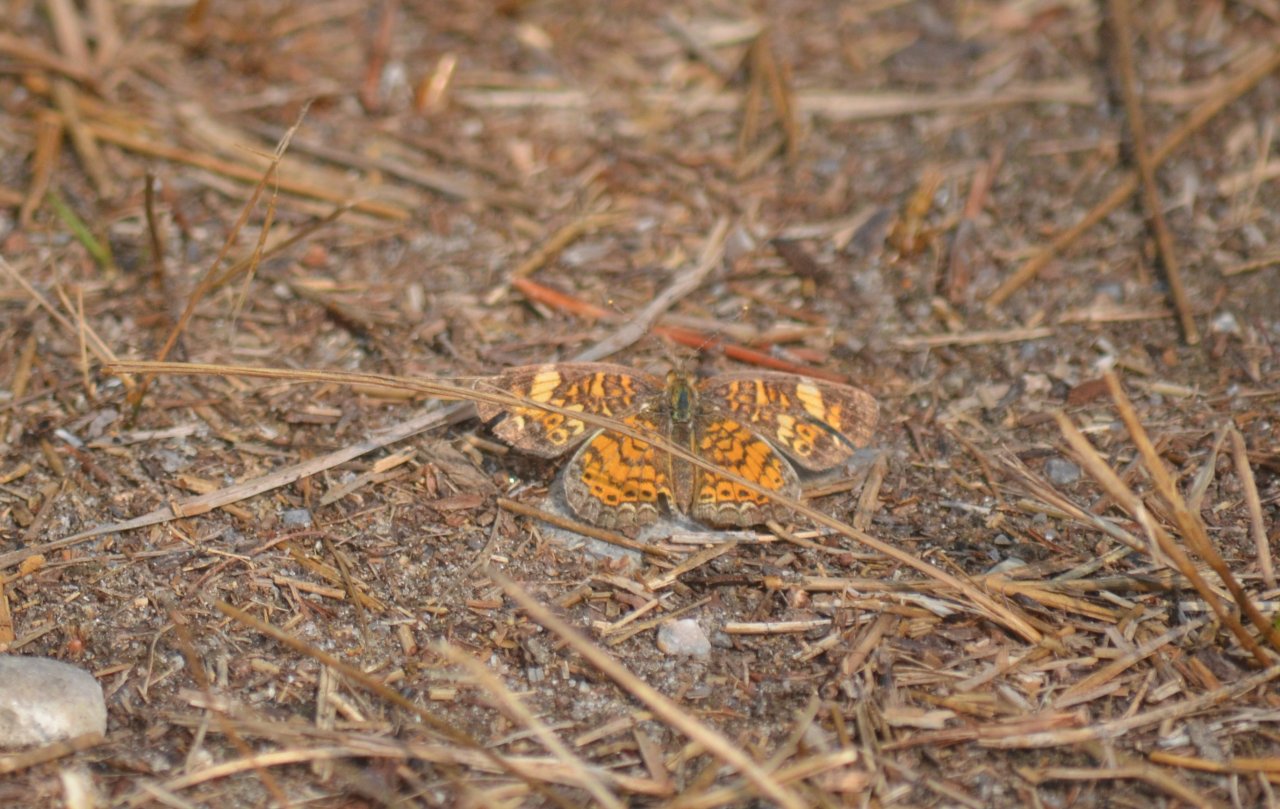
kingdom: Animalia
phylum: Arthropoda
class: Insecta
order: Lepidoptera
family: Nymphalidae
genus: Phyciodes
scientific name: Phyciodes tharos
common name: Pearl Crescent
